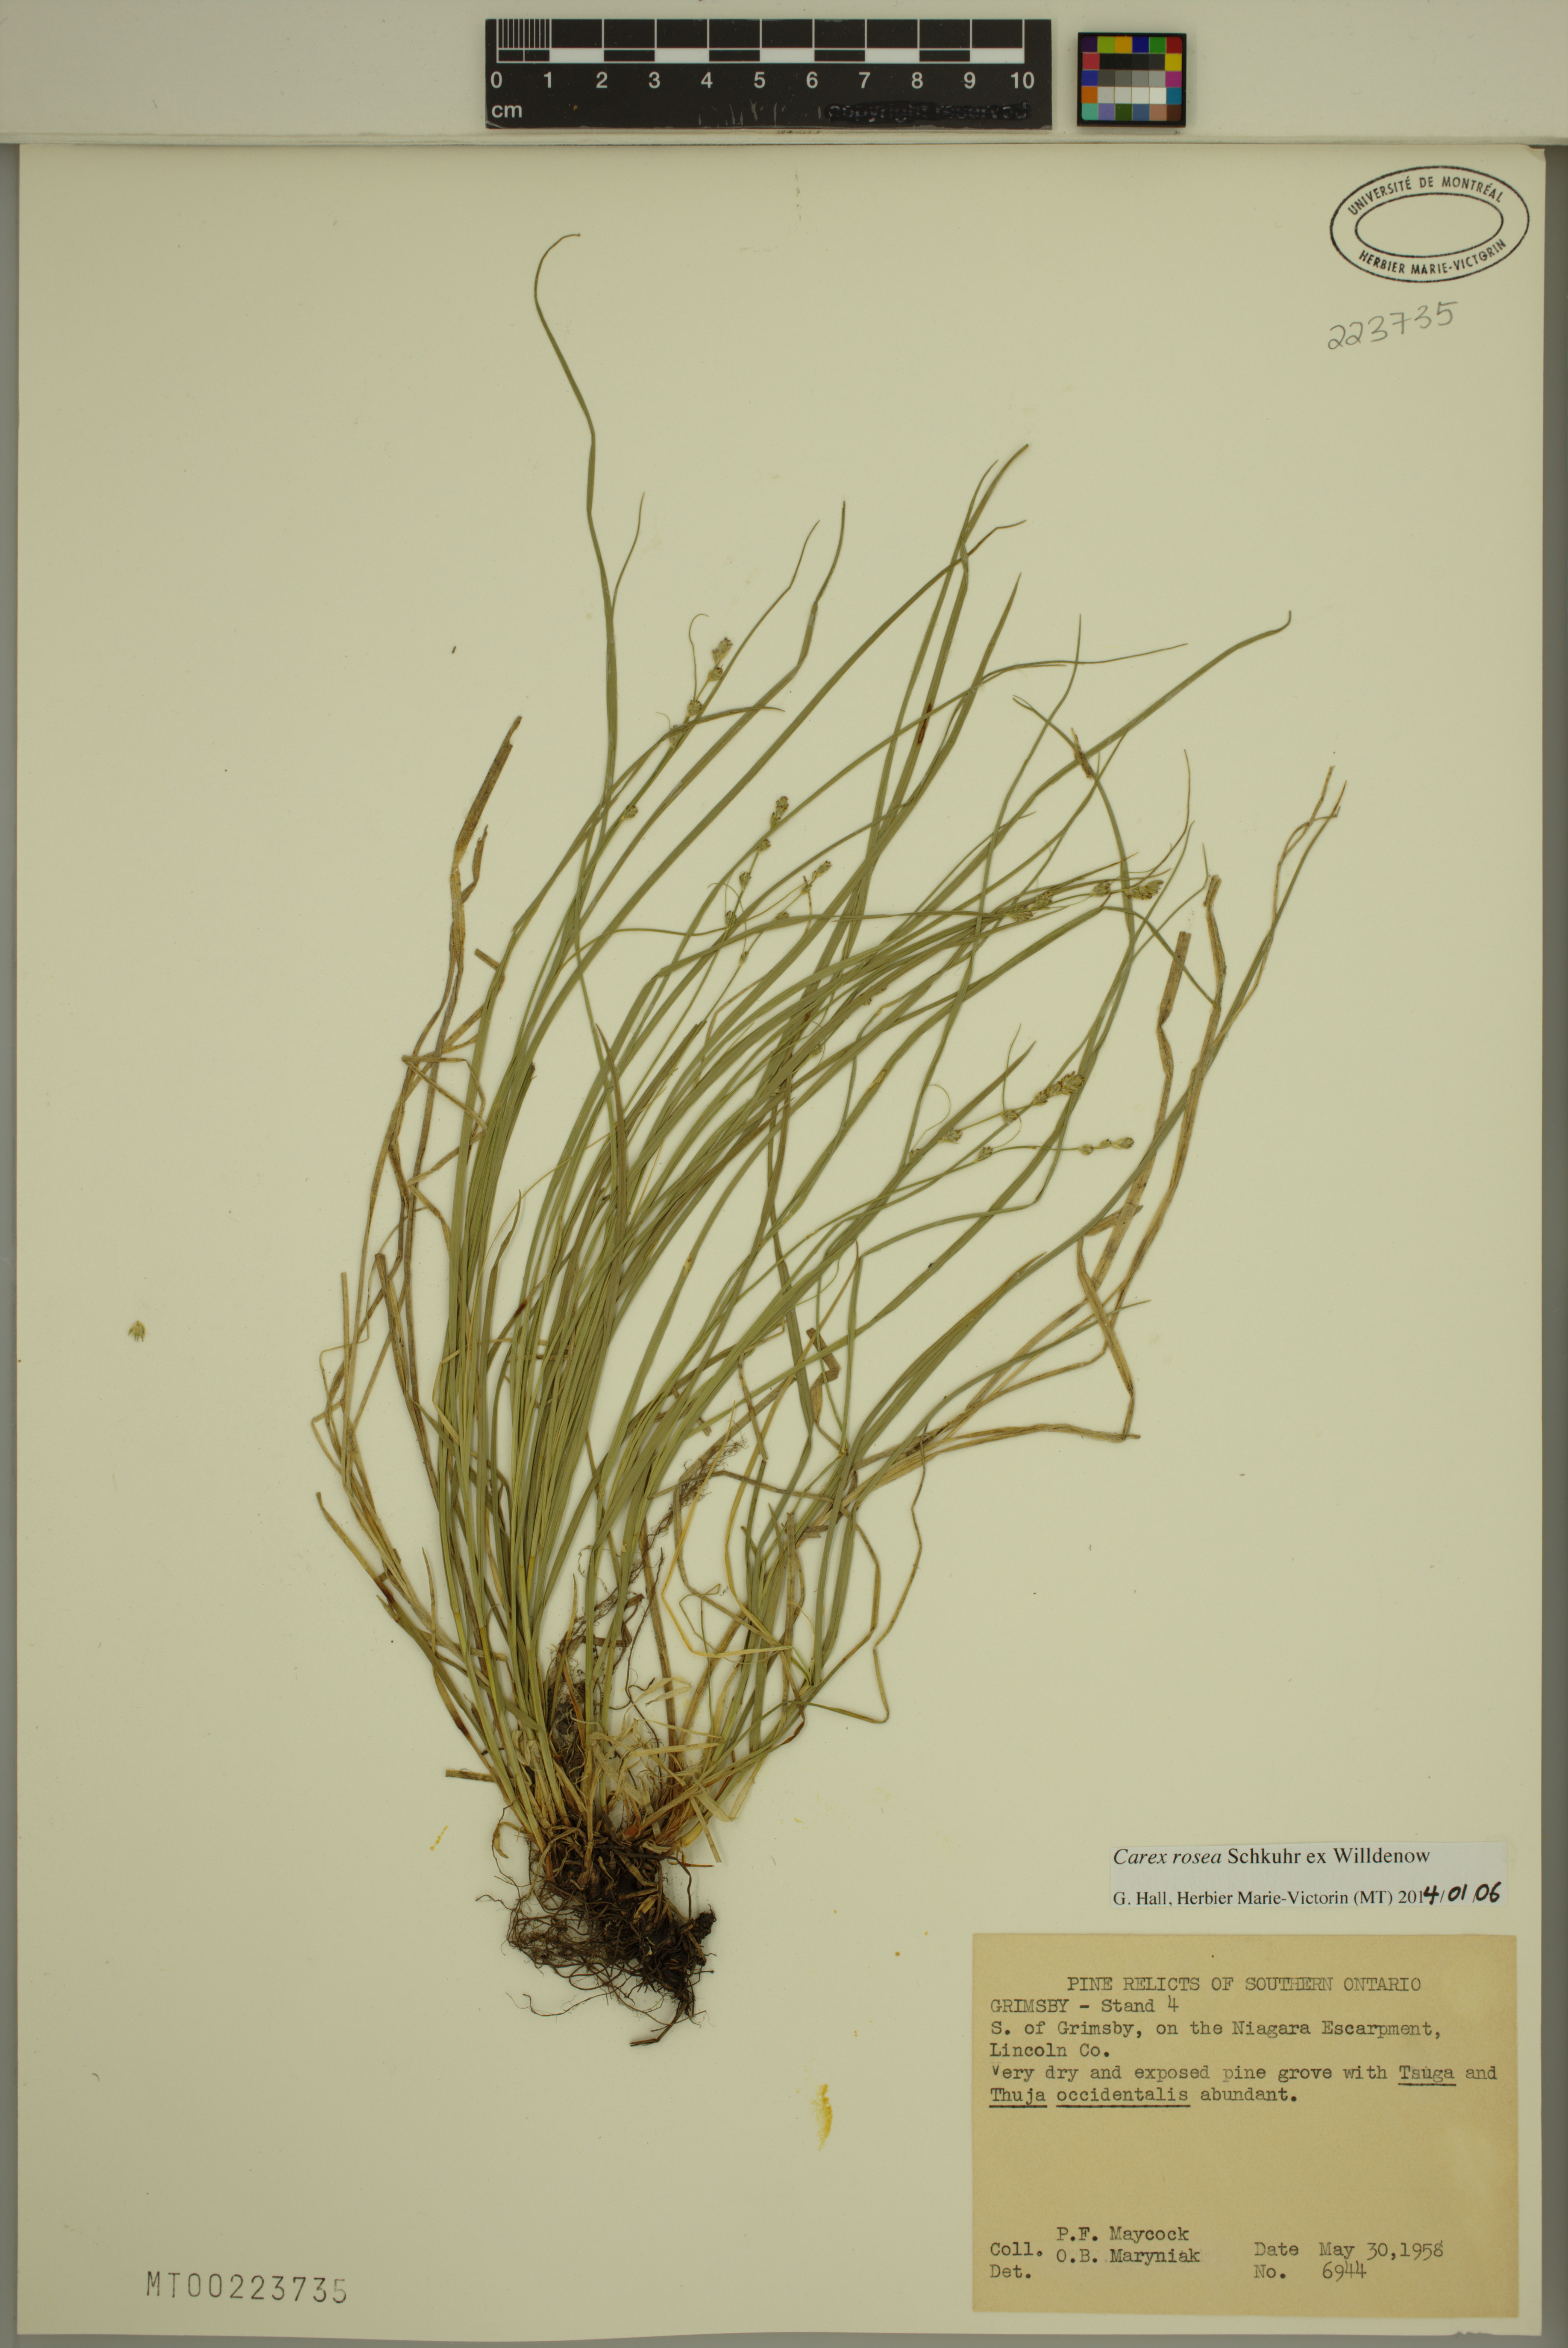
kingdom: Plantae
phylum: Tracheophyta
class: Liliopsida
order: Poales
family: Cyperaceae
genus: Carex
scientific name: Carex rosea
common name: Curly-styled wood sedge
